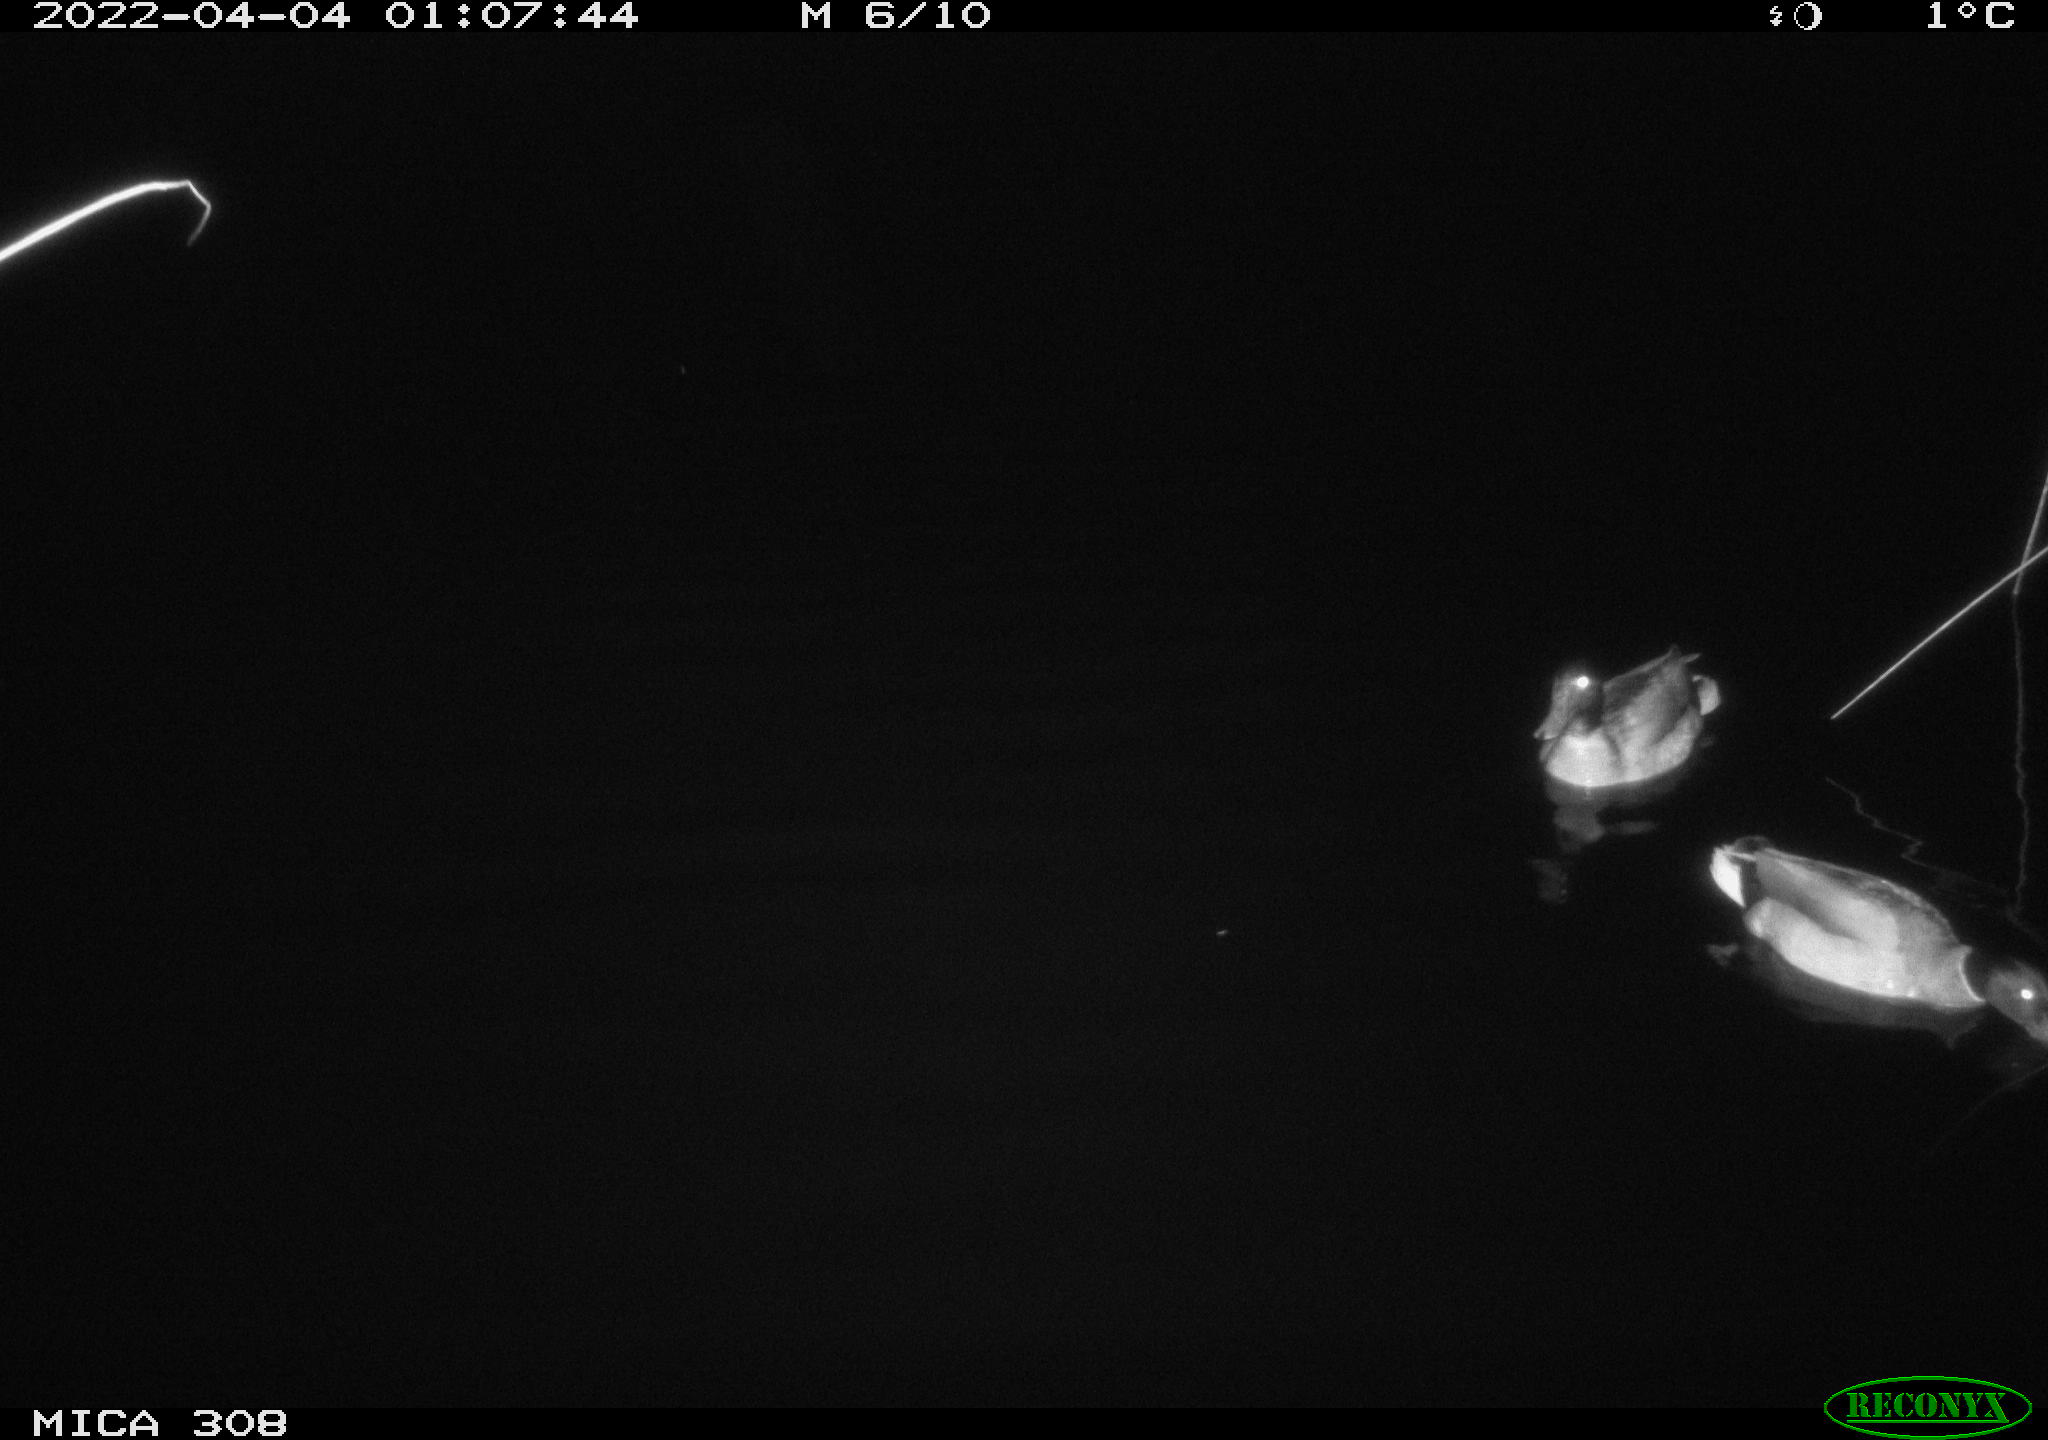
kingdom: Animalia
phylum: Chordata
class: Aves
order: Anseriformes
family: Anatidae
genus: Anas
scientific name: Anas platyrhynchos
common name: Mallard
